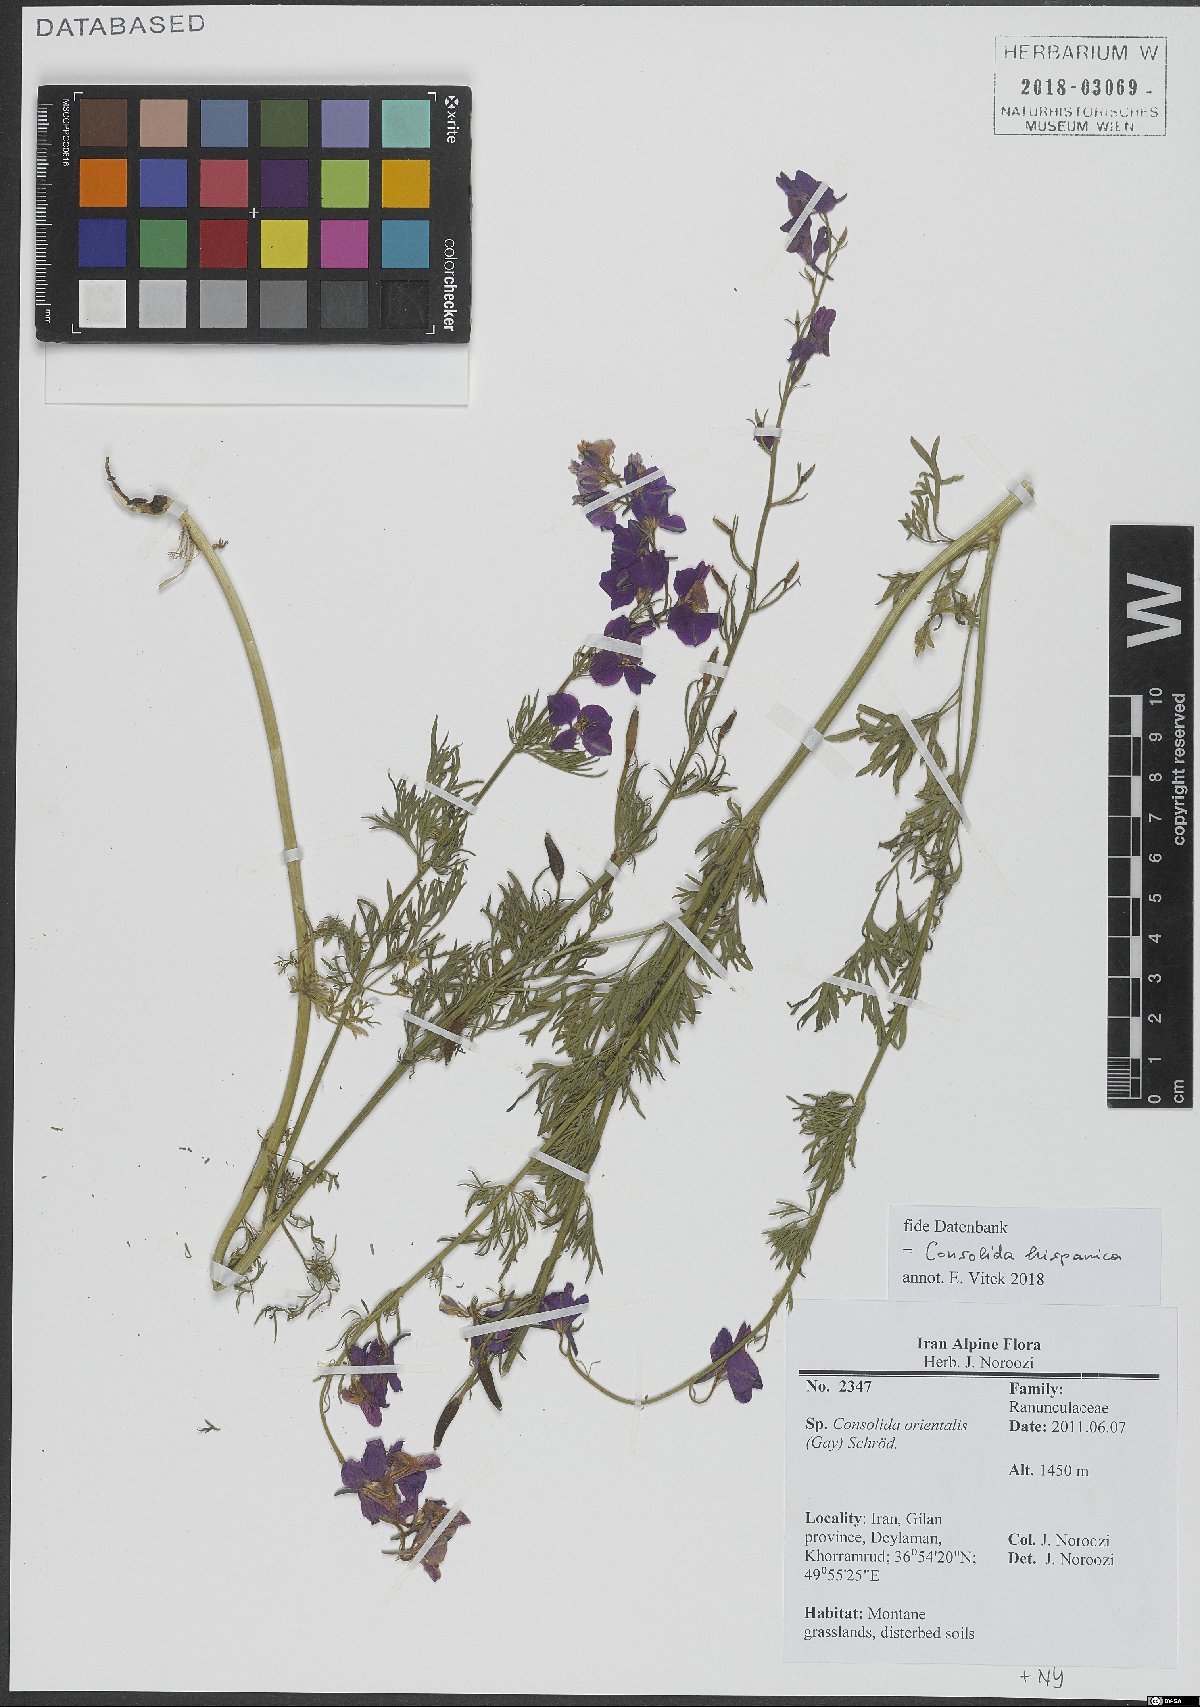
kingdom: Plantae
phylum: Tracheophyta
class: Magnoliopsida
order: Ranunculales
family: Ranunculaceae
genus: Delphinium
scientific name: Delphinium hispanicum
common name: Oriental knight's-spur
